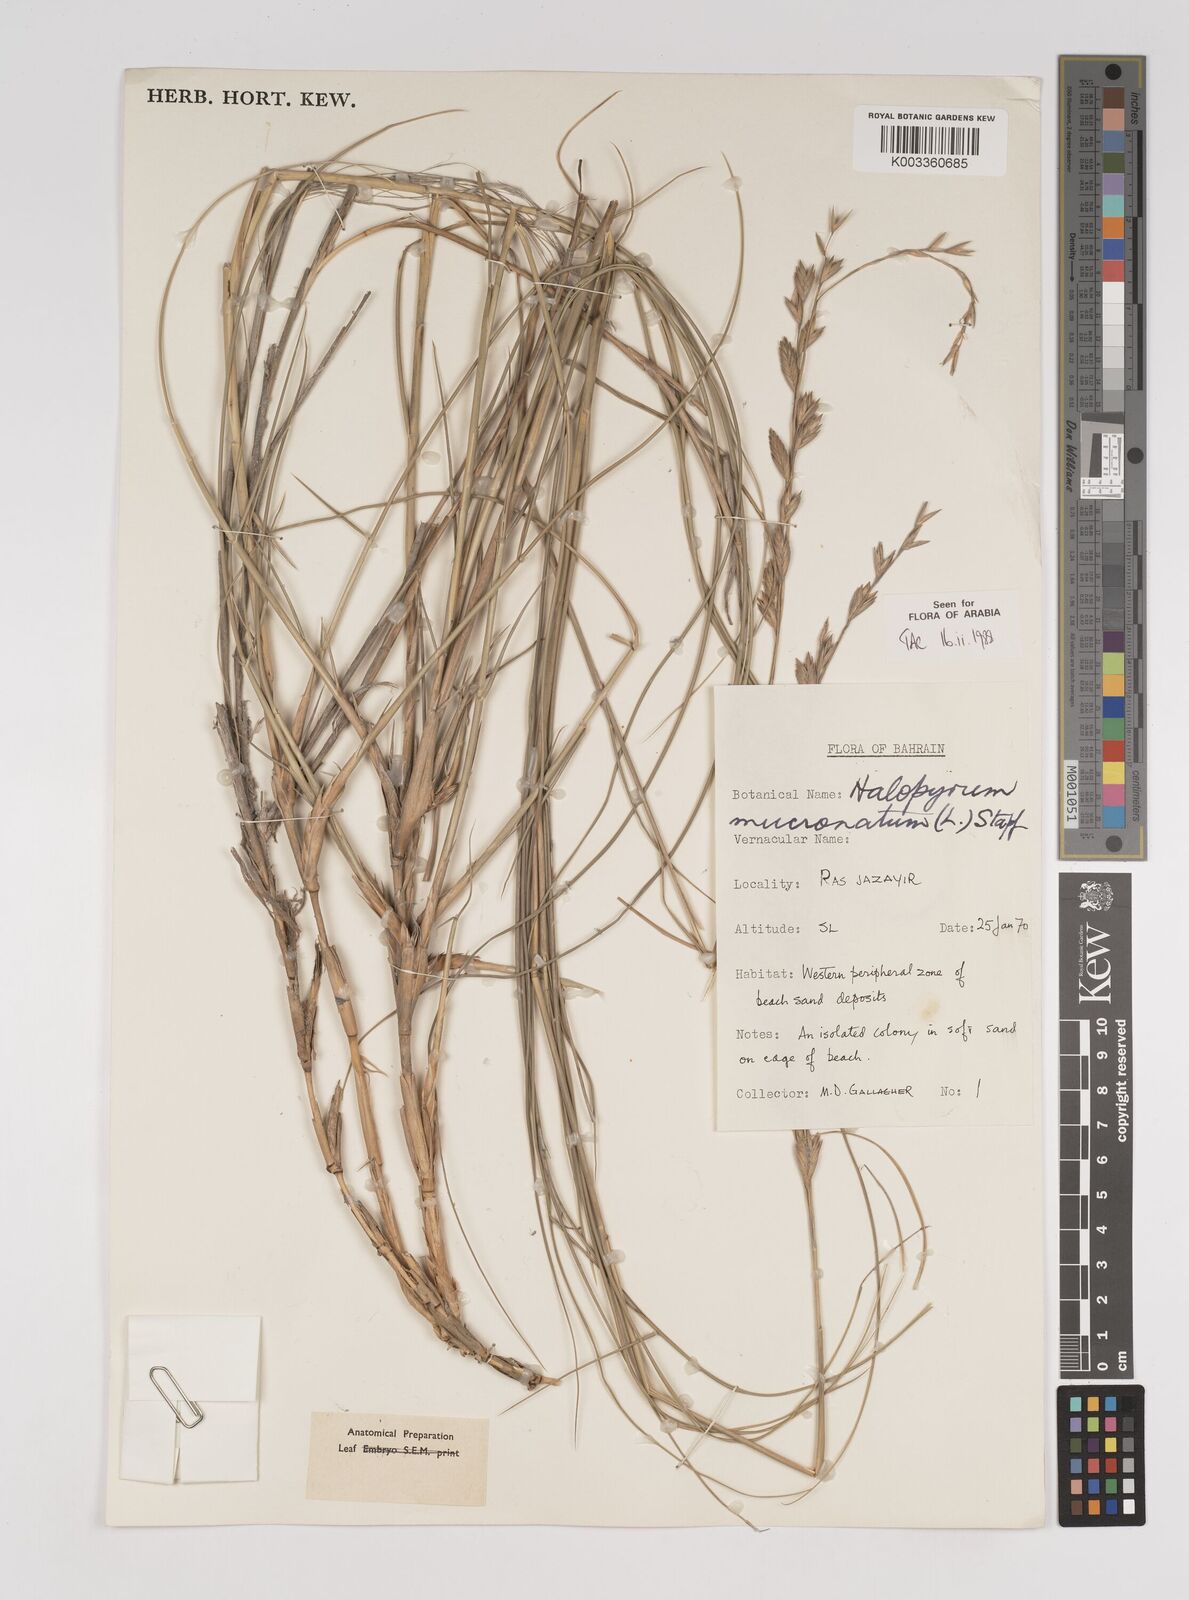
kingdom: Plantae
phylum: Tracheophyta
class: Liliopsida
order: Poales
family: Poaceae
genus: Halopyrum
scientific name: Halopyrum mucronatum
